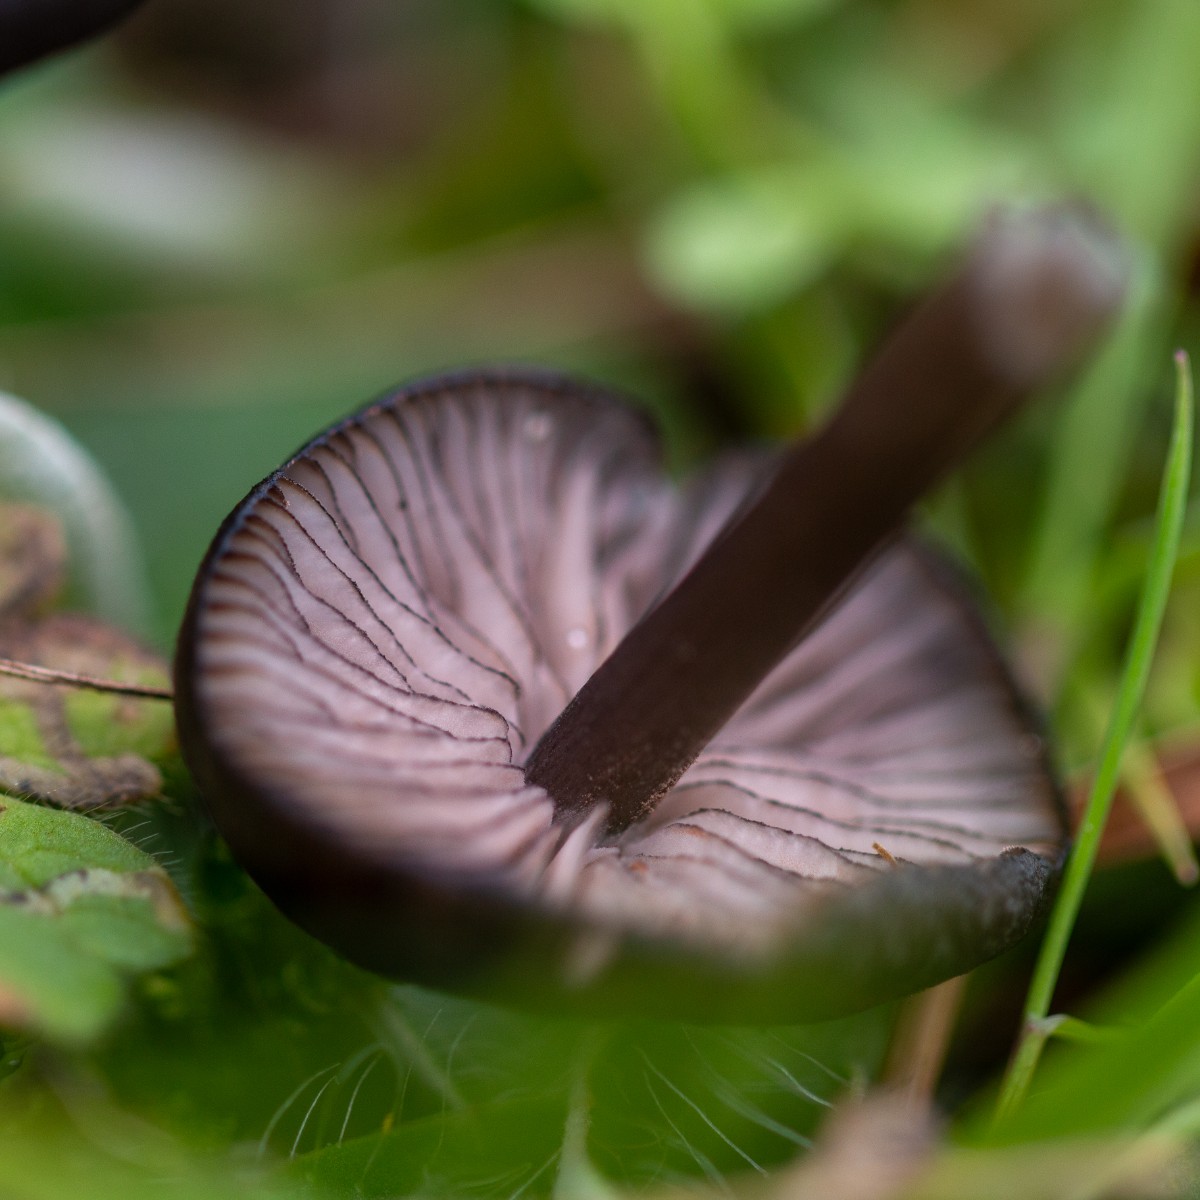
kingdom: Fungi
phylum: Basidiomycota
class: Agaricomycetes
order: Agaricales
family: Entolomataceae
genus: Entoloma
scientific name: Entoloma
